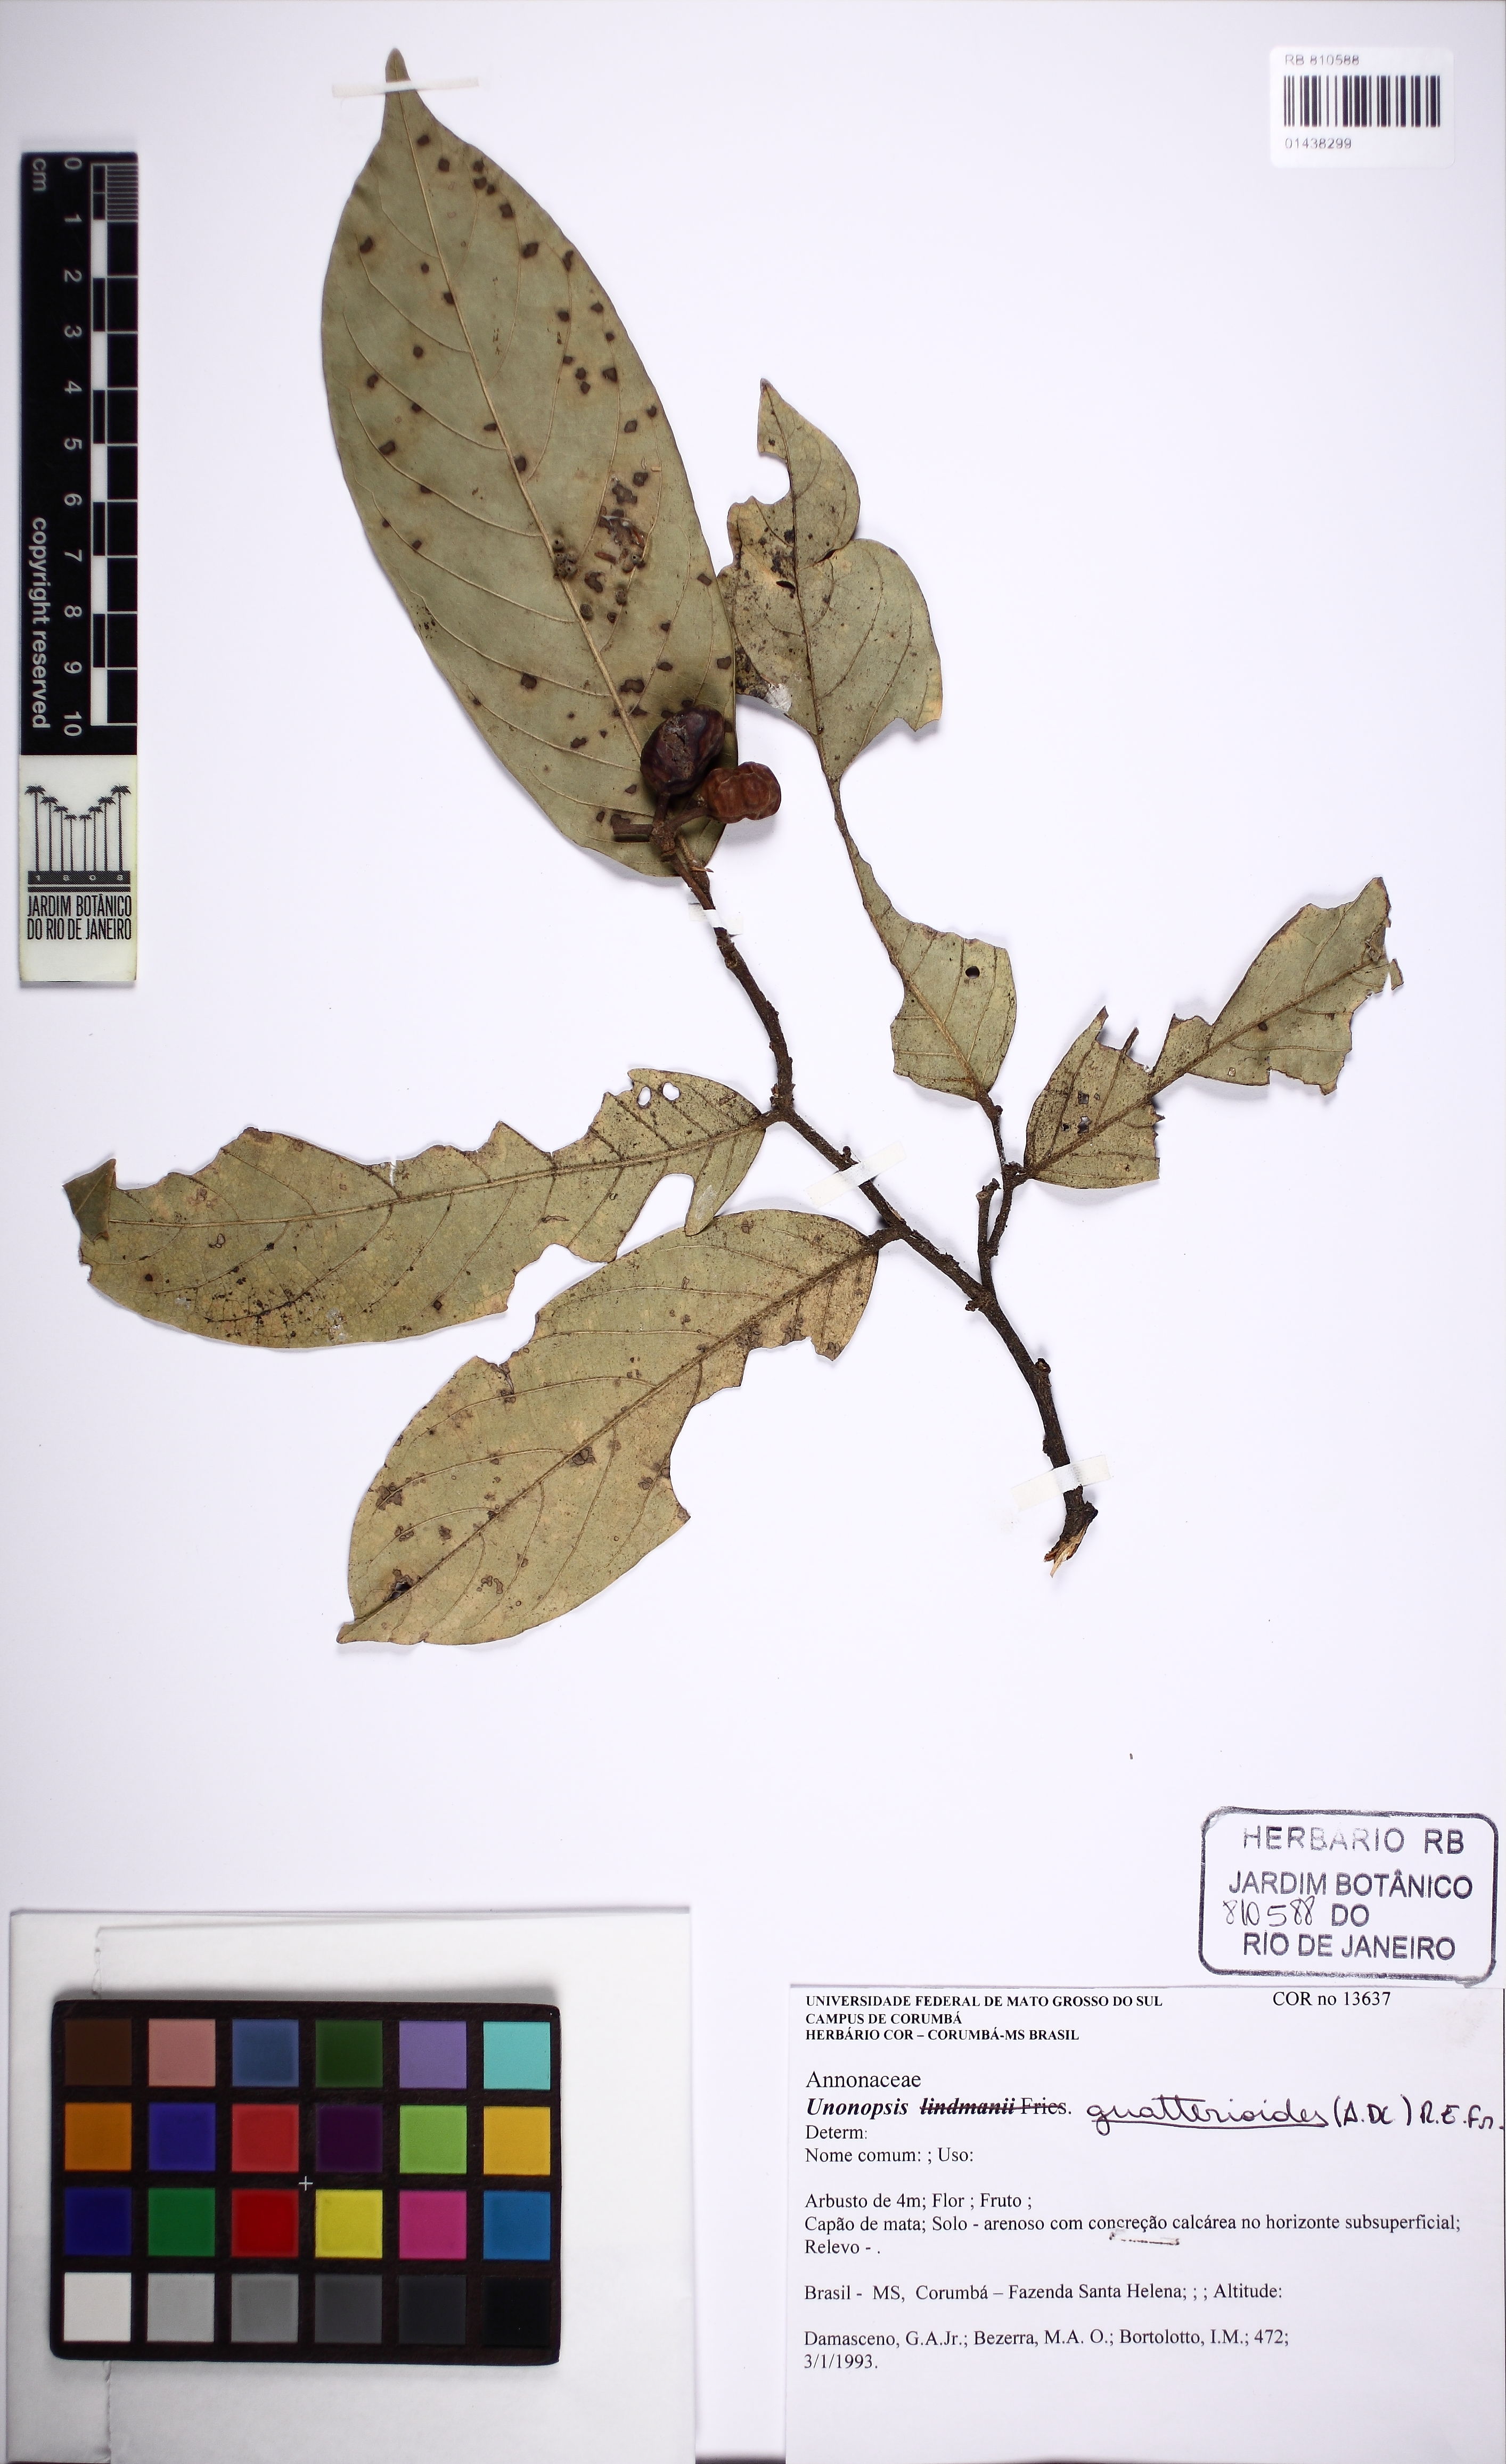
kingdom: Plantae
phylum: Tracheophyta
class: Magnoliopsida
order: Magnoliales
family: Annonaceae
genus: Unonopsis
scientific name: Unonopsis guatterioides
